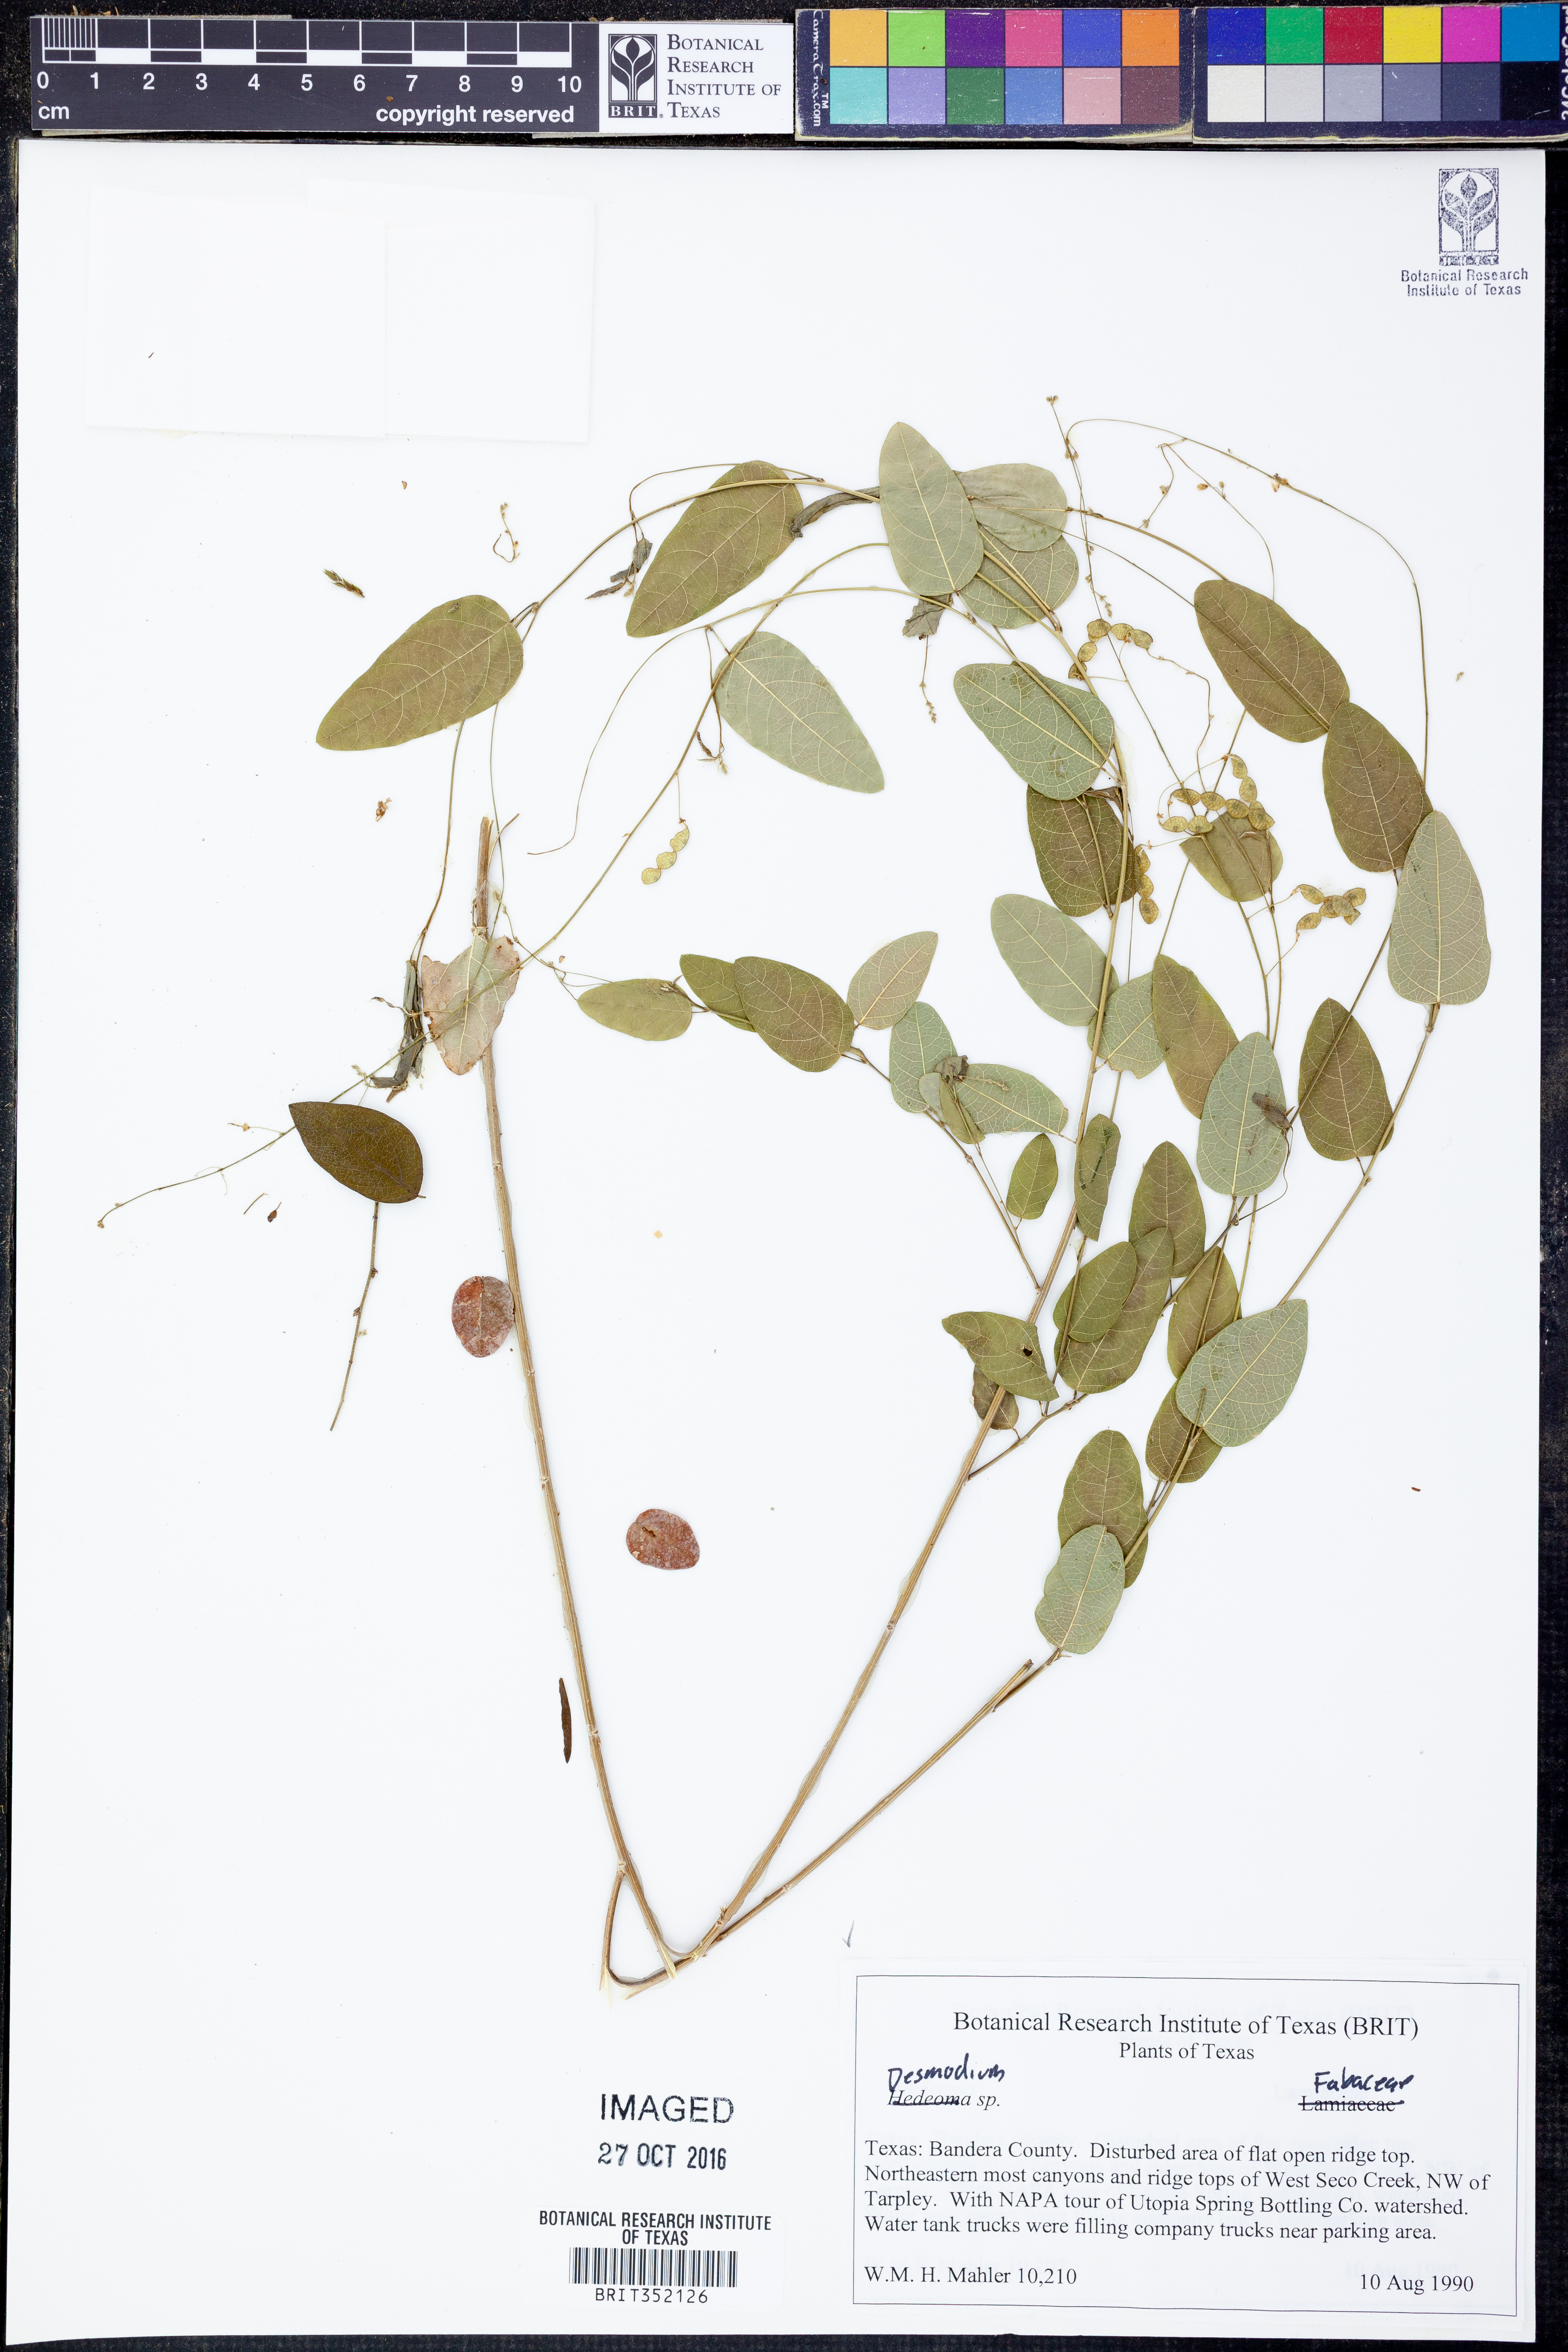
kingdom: Plantae
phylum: Tracheophyta
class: Magnoliopsida
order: Fabales
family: Fabaceae
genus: Desmodium
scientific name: Desmodium
